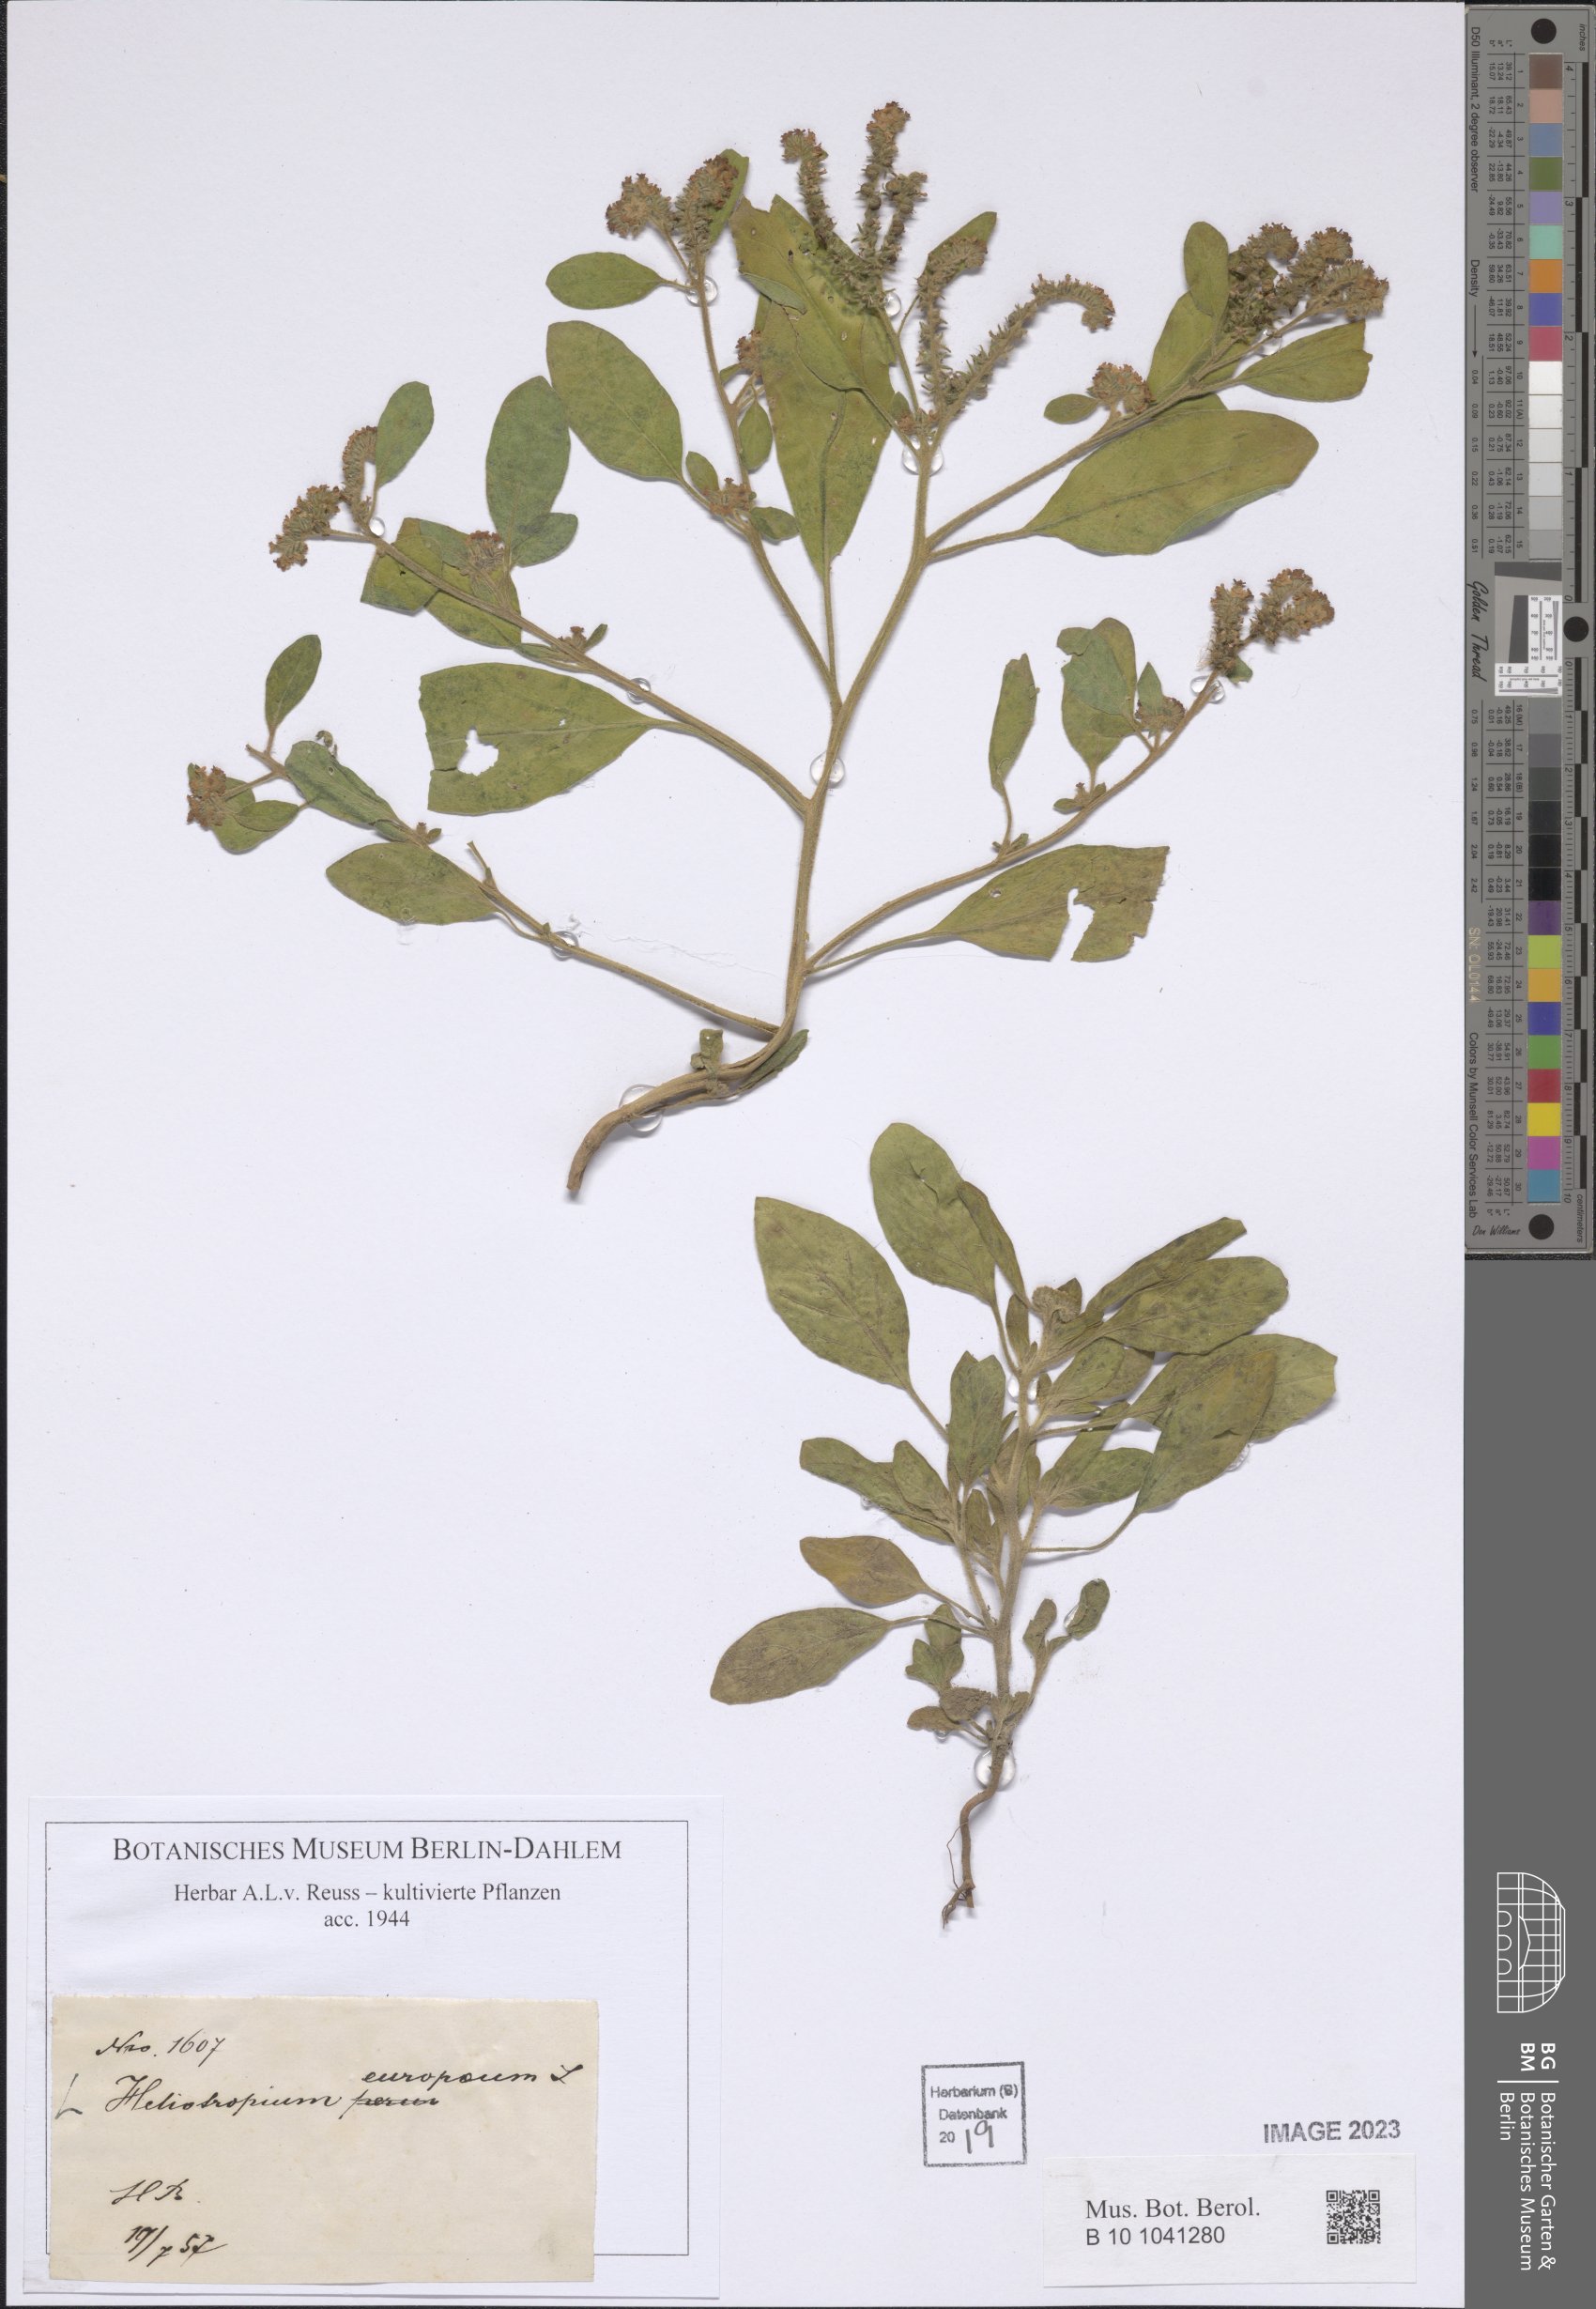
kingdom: Plantae
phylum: Tracheophyta
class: Magnoliopsida
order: Boraginales
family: Heliotropiaceae
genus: Heliotropium
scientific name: Heliotropium europaeum
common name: European heliotrope
